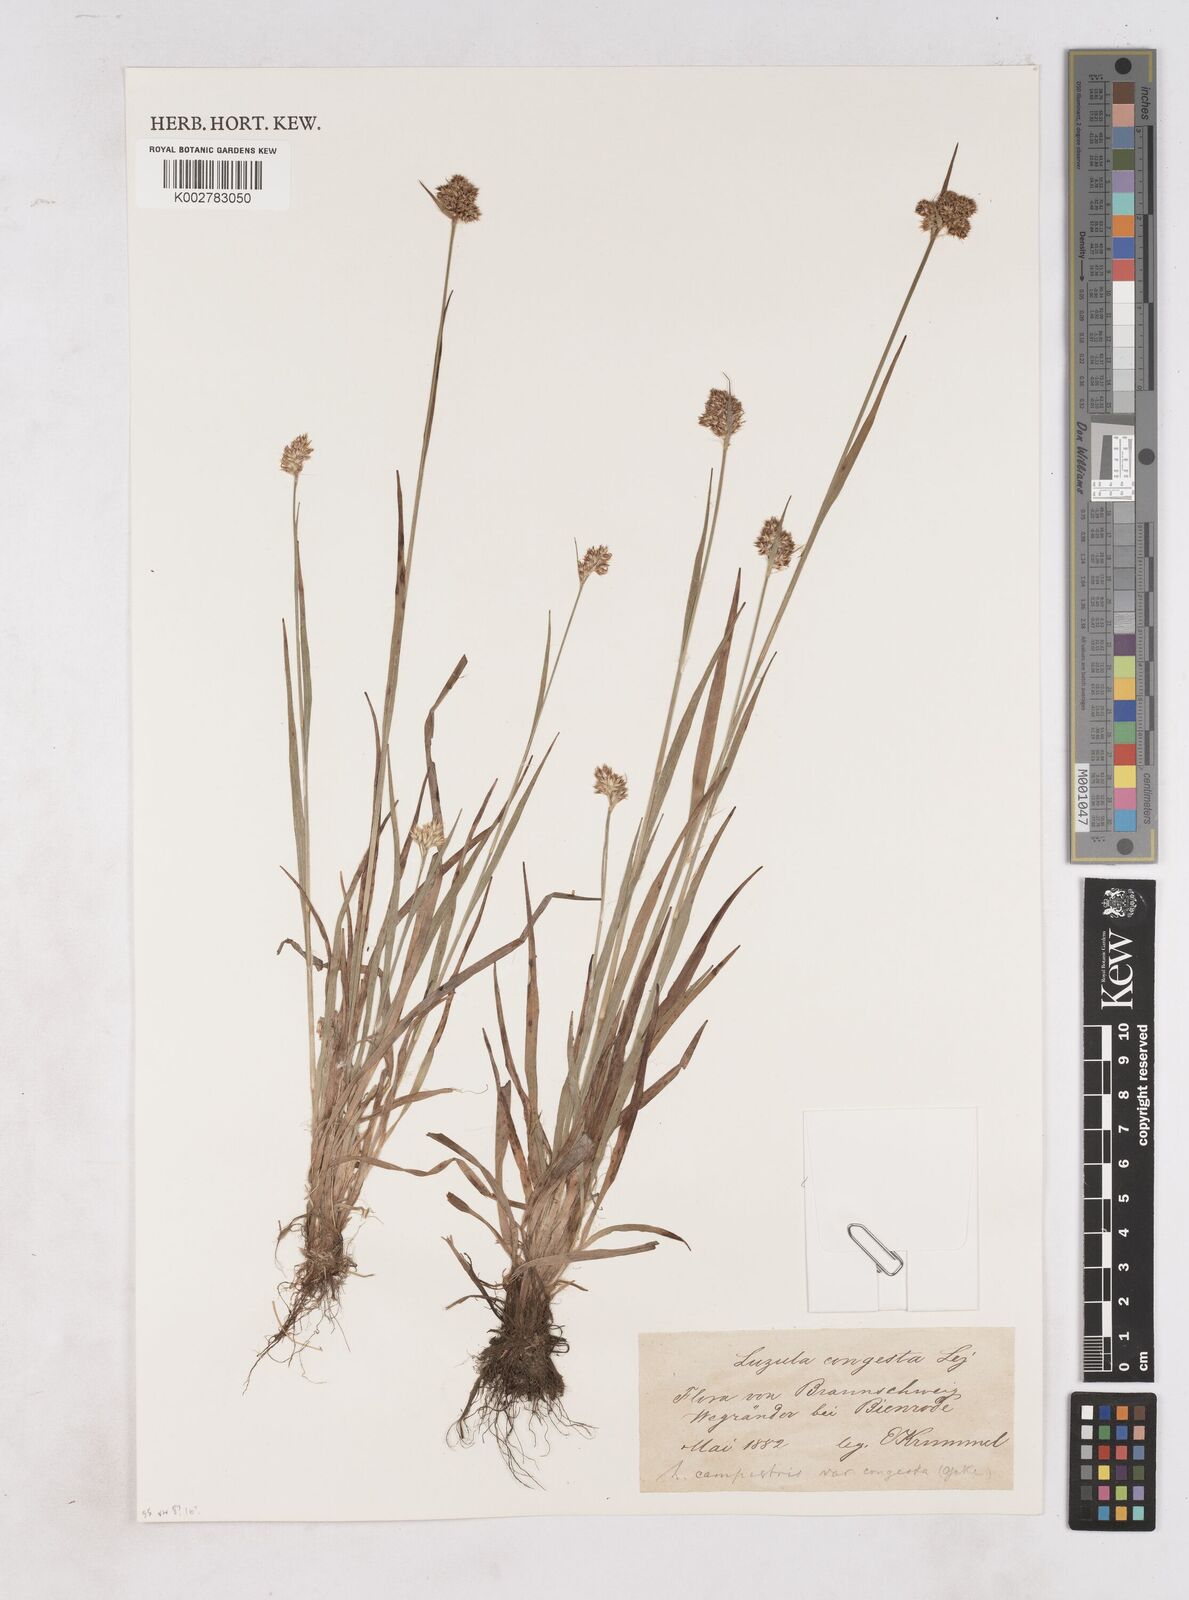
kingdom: Plantae
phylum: Tracheophyta
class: Liliopsida
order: Poales
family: Juncaceae
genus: Luzula
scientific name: Luzula campestris
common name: Field wood-rush
